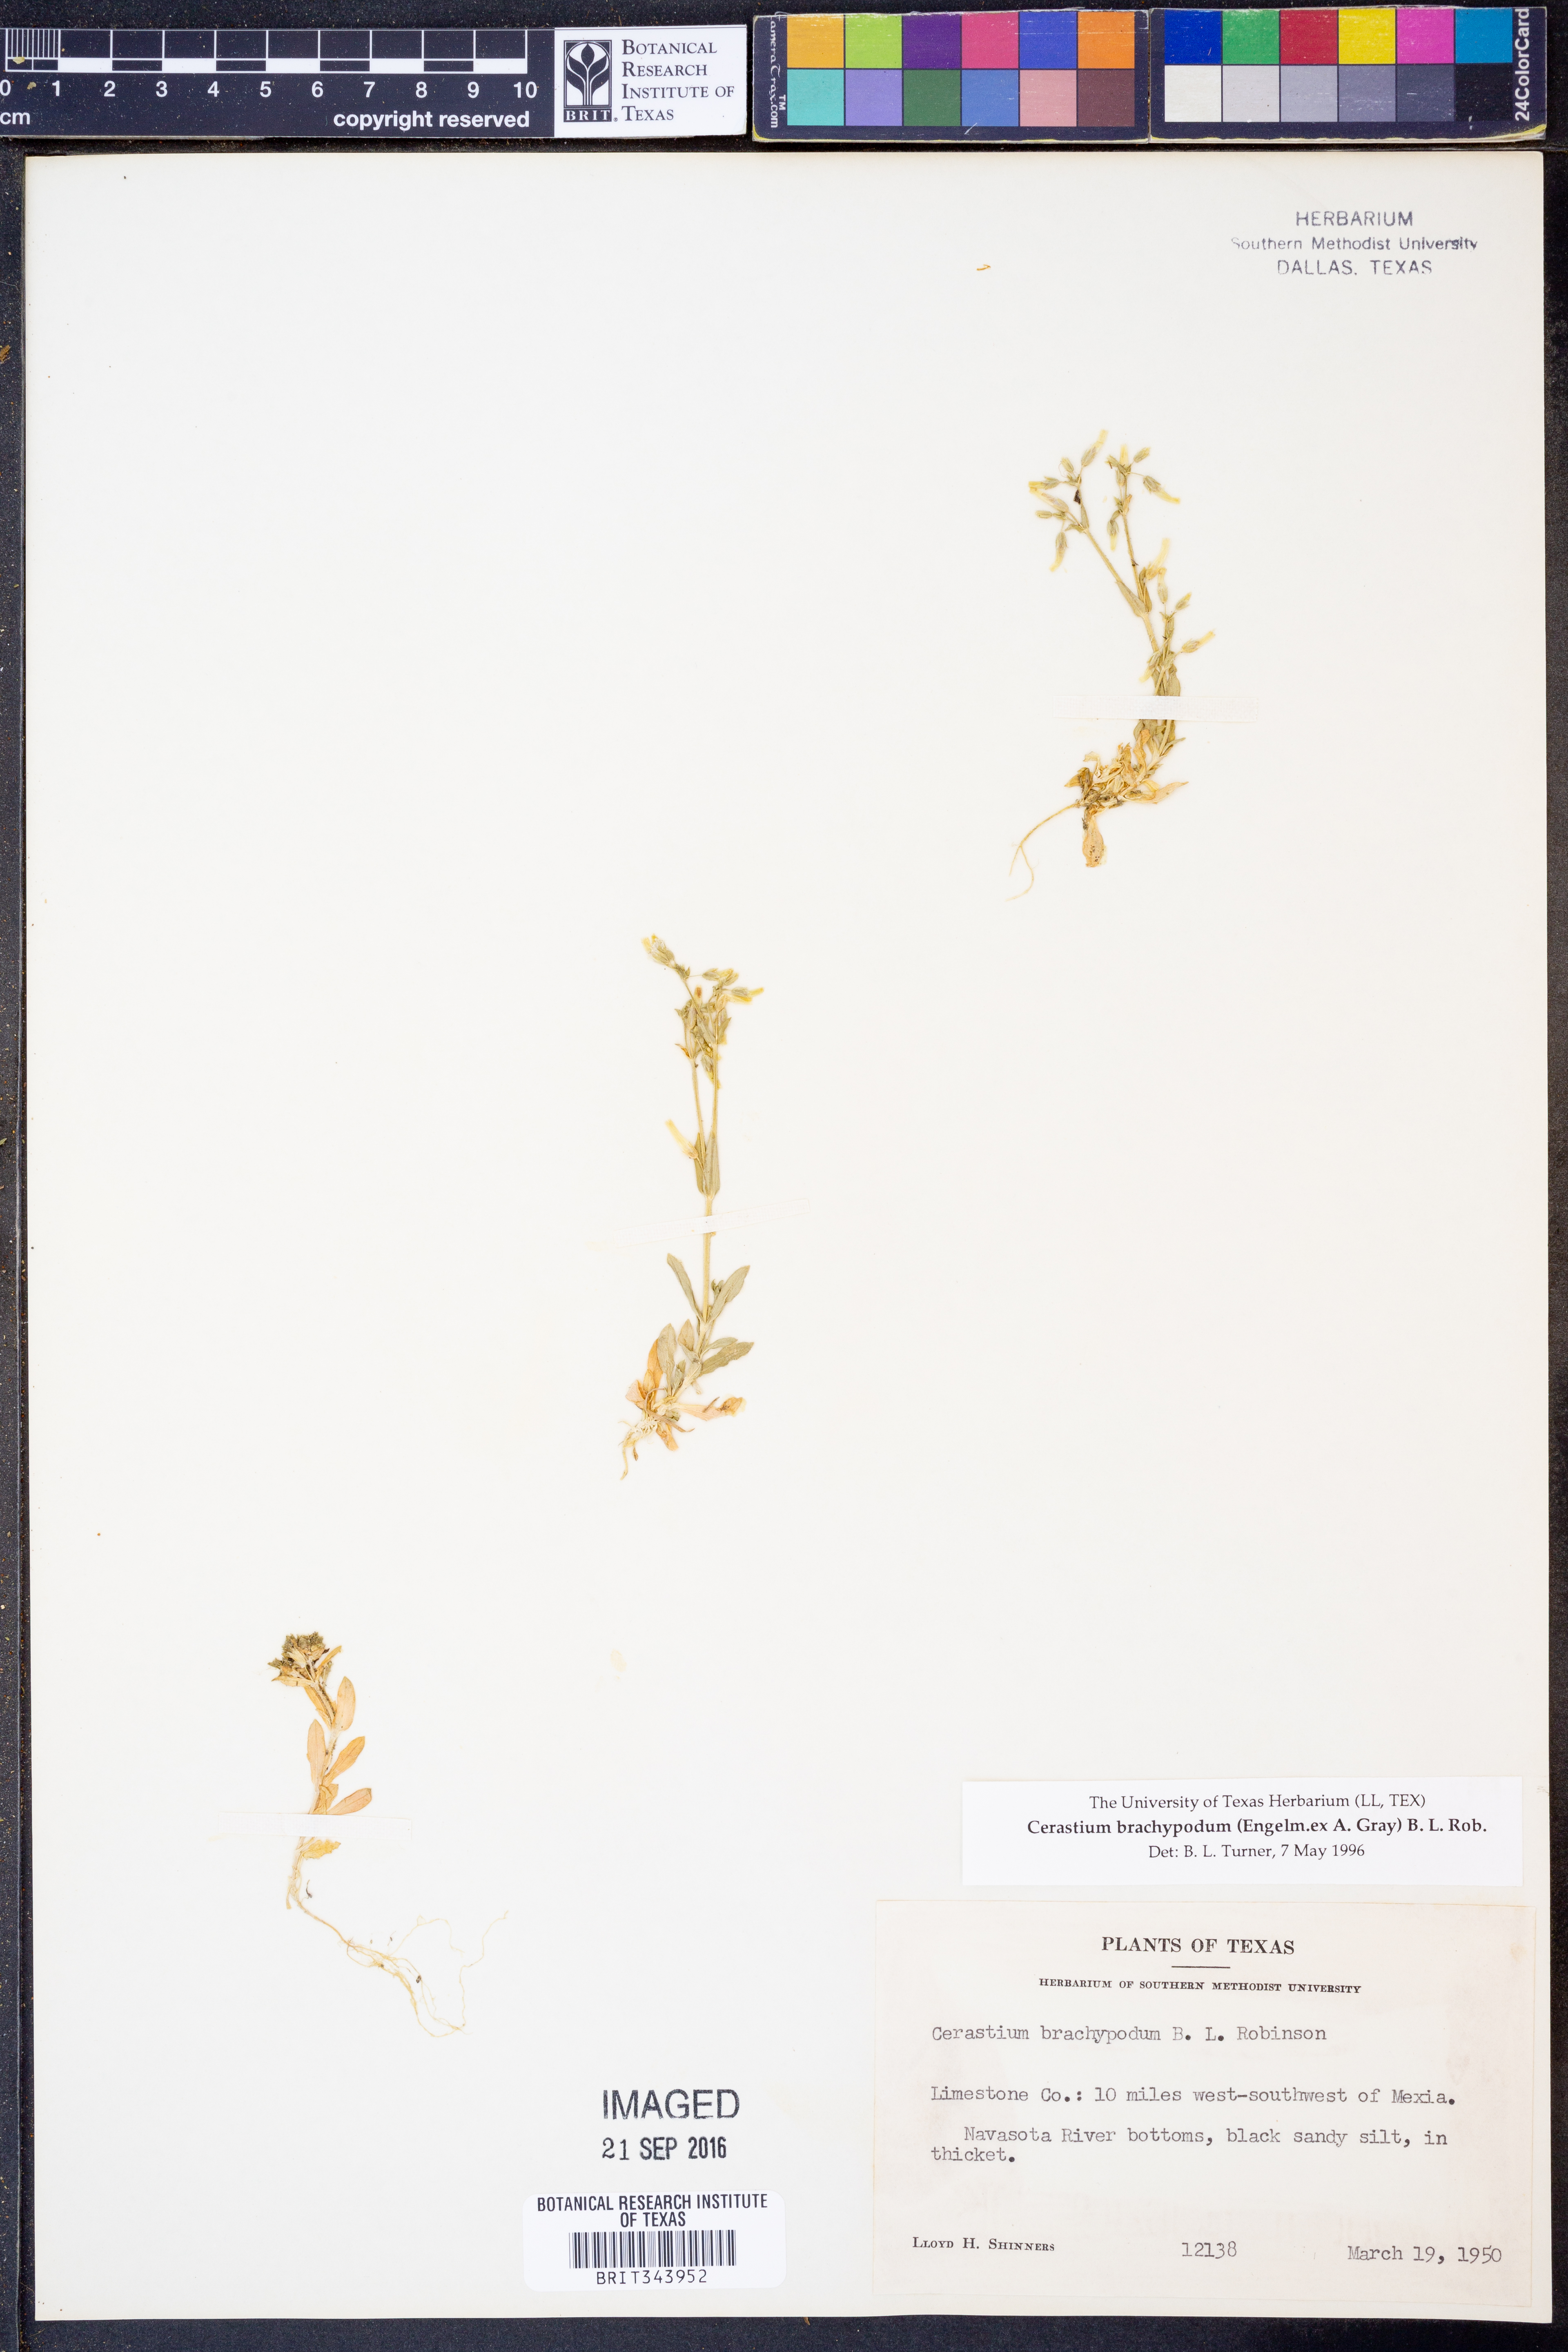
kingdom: Plantae
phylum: Tracheophyta
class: Magnoliopsida
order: Caryophyllales
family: Caryophyllaceae
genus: Cerastium
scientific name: Cerastium brachypodum
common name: Short-pedicelled nodding chickweed
